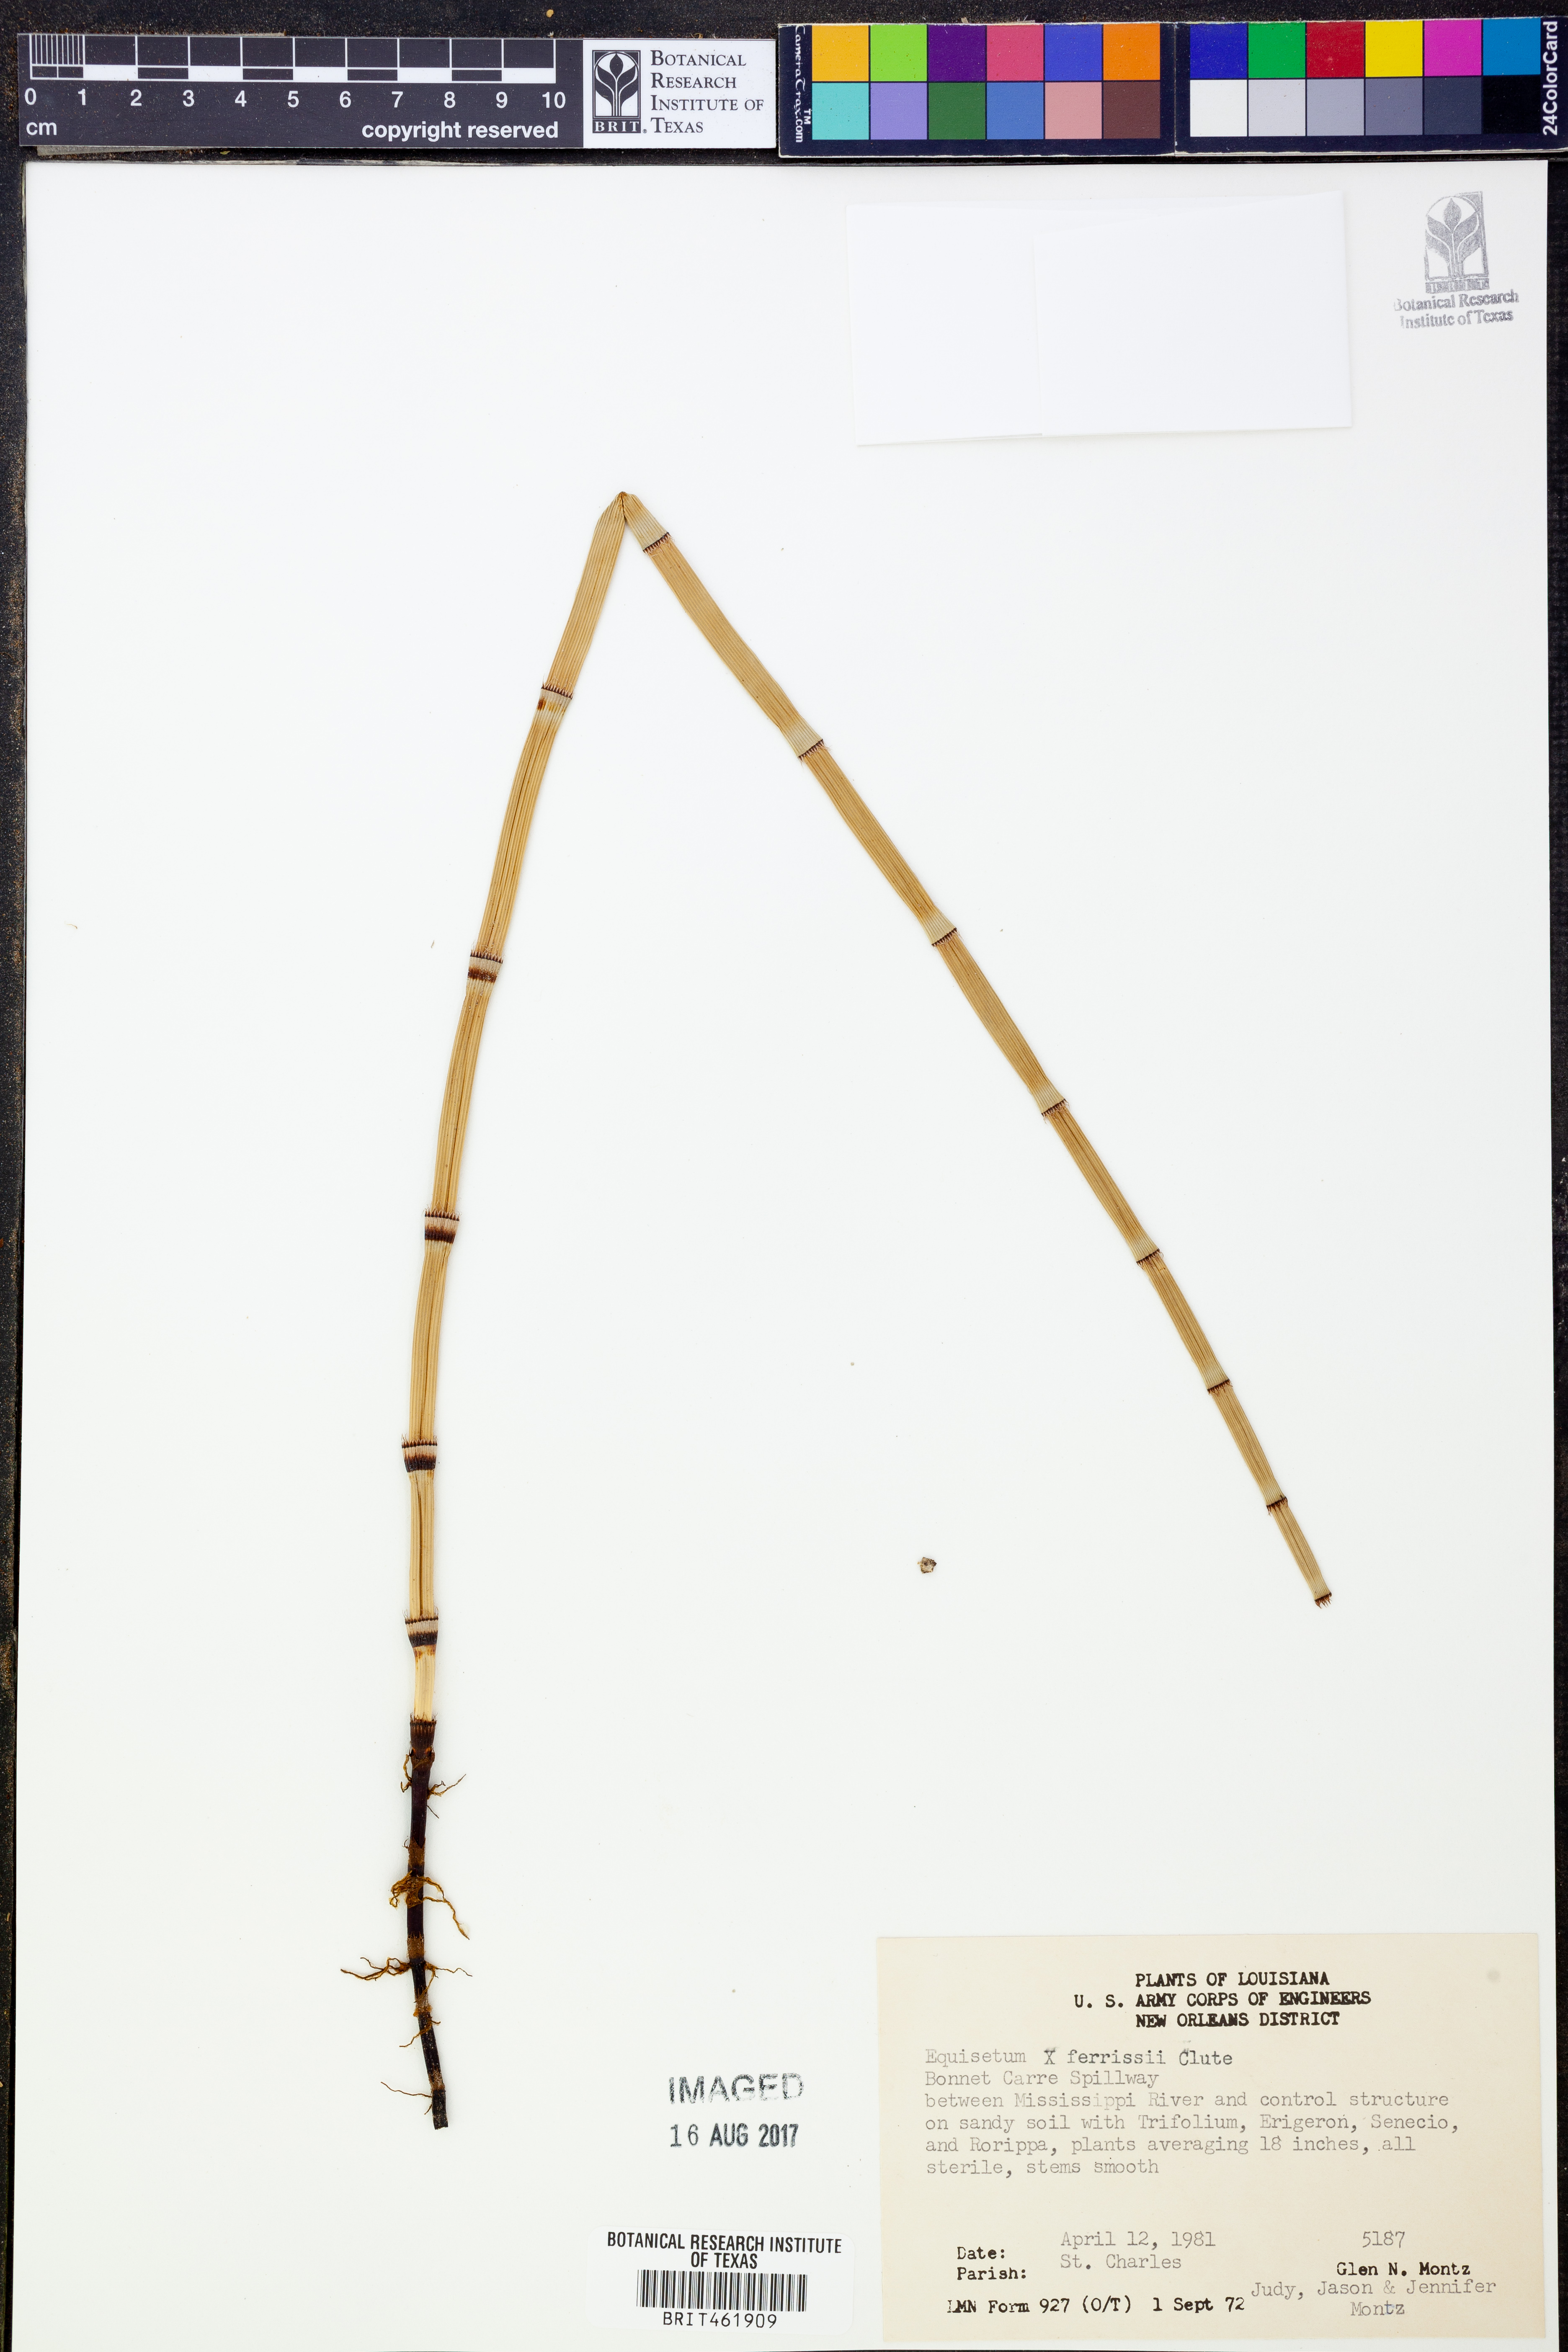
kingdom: Plantae
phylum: Tracheophyta
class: Polypodiopsida
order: Equisetales
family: Equisetaceae
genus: Equisetum
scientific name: Equisetum ferrissii
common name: Ferriss' horsetail
